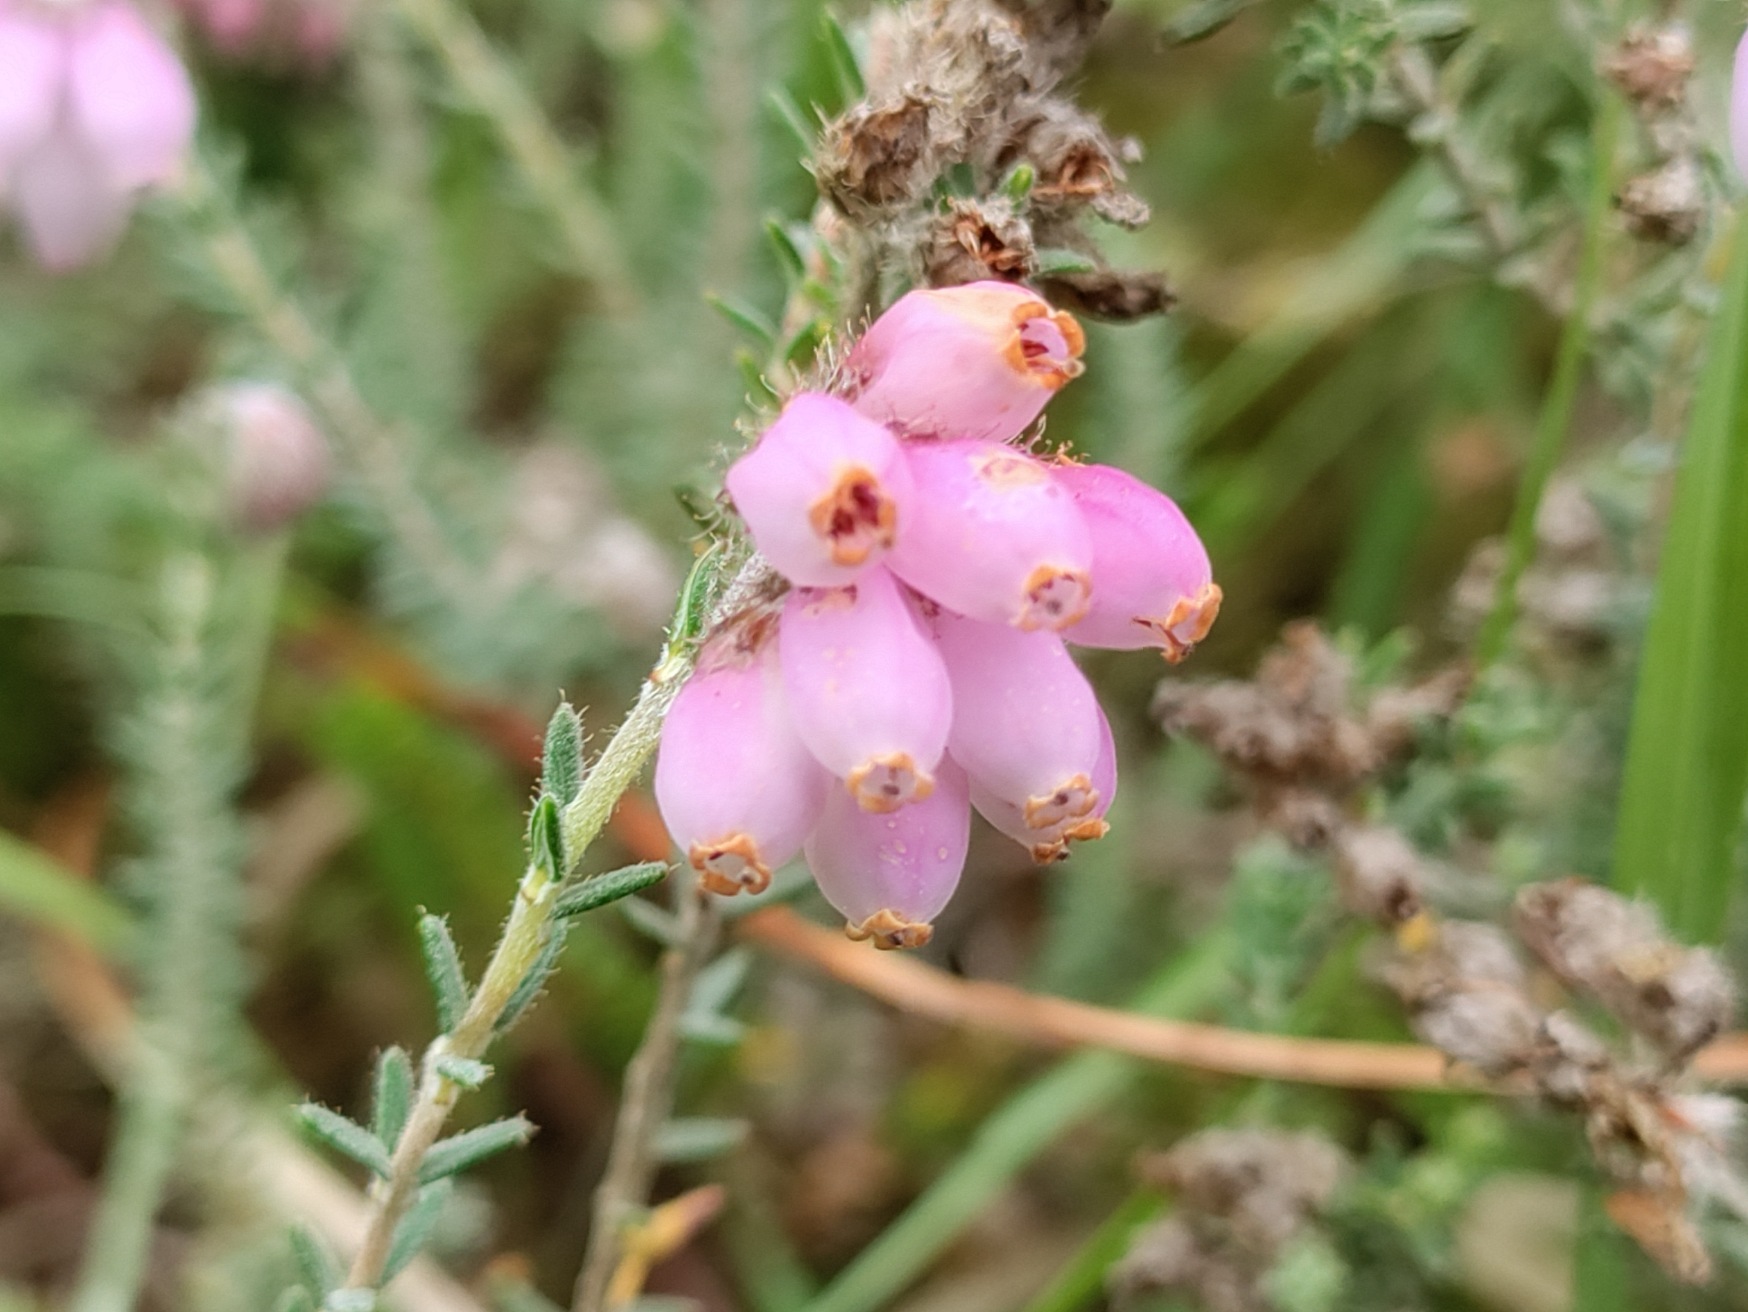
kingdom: Plantae
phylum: Tracheophyta
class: Magnoliopsida
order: Ericales
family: Ericaceae
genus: Erica
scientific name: Erica tetralix
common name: Klokkelyng
